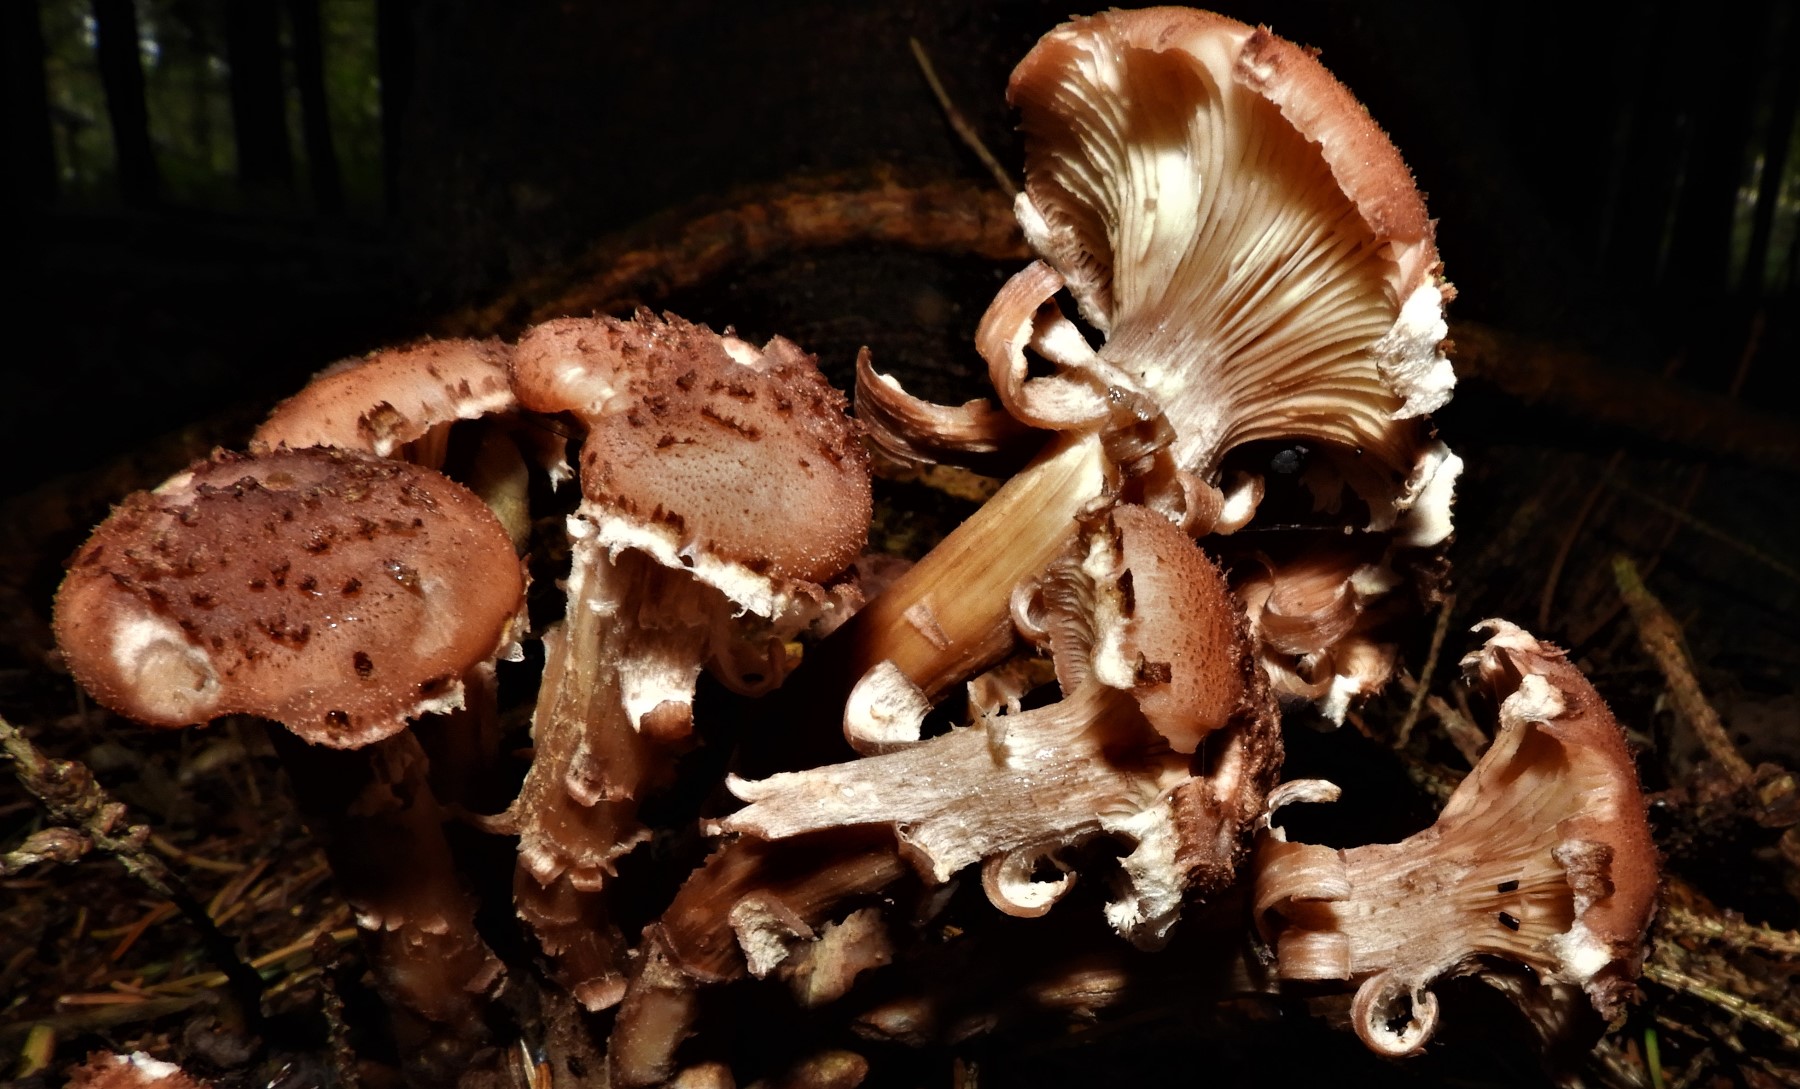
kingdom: Fungi
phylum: Basidiomycota
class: Agaricomycetes
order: Agaricales
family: Physalacriaceae
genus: Armillaria
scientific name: Armillaria ostoyae
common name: mørk honningsvamp
